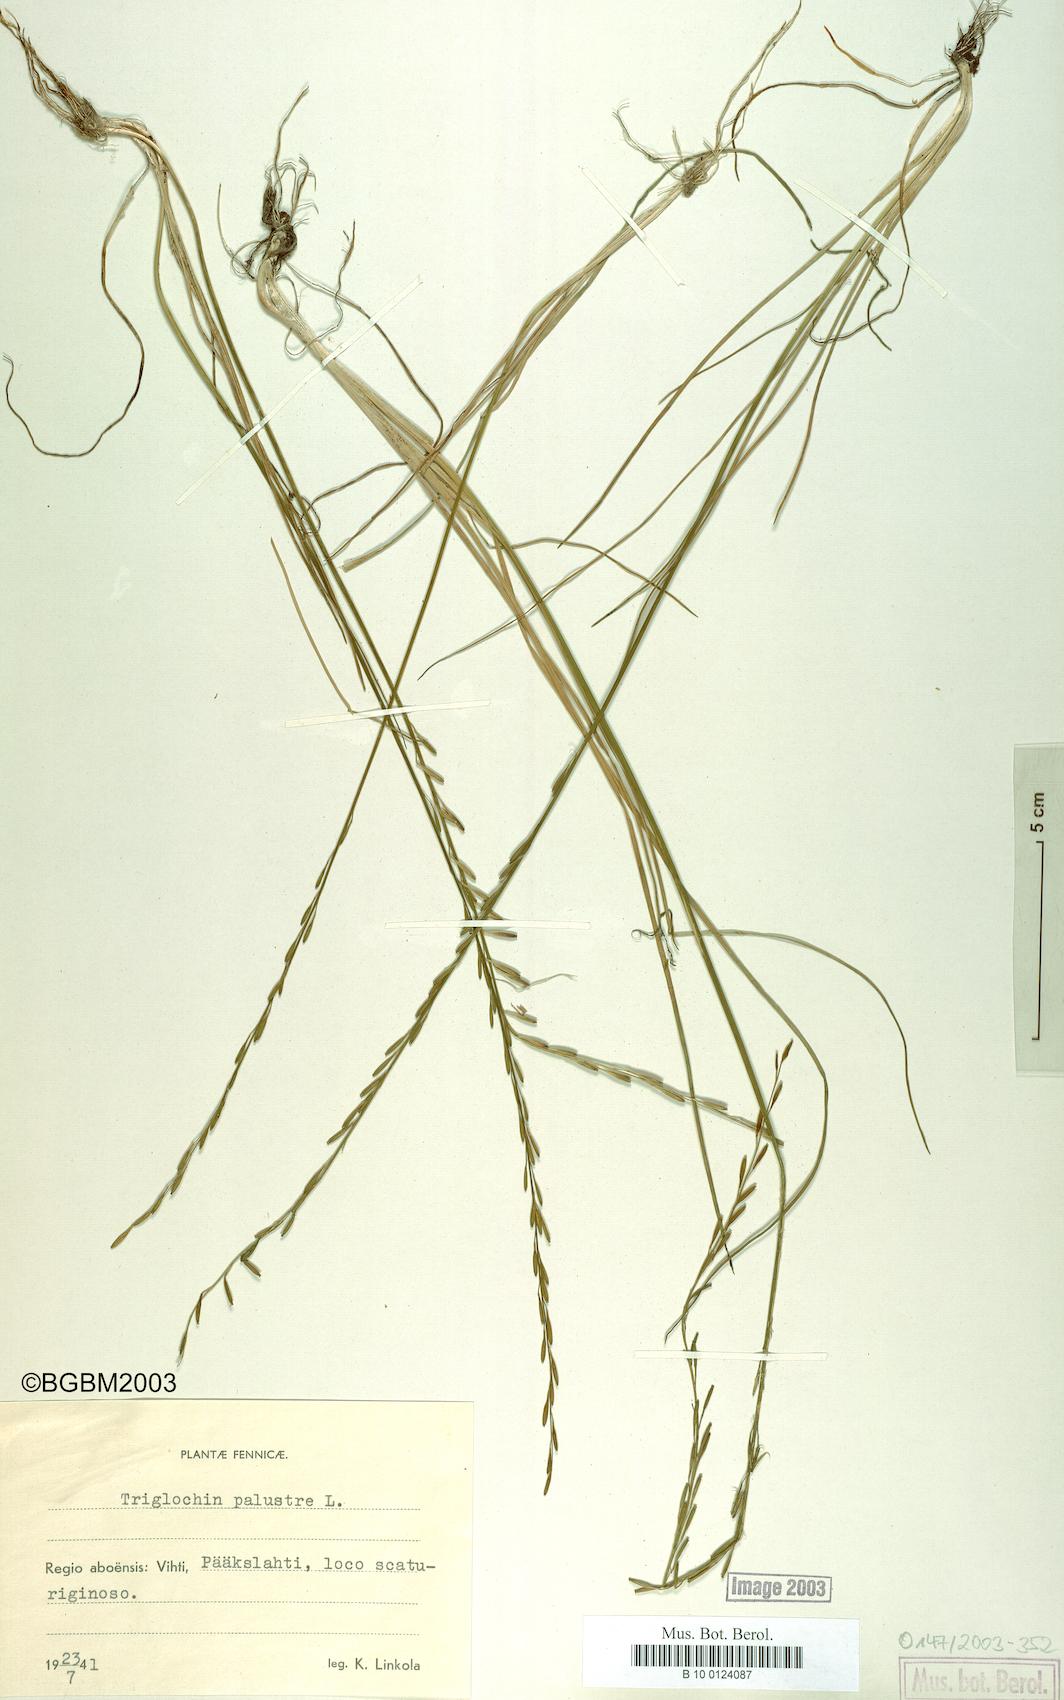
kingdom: Plantae
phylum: Tracheophyta
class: Liliopsida
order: Alismatales
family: Juncaginaceae
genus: Triglochin
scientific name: Triglochin palustris
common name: Marsh arrowgrass
